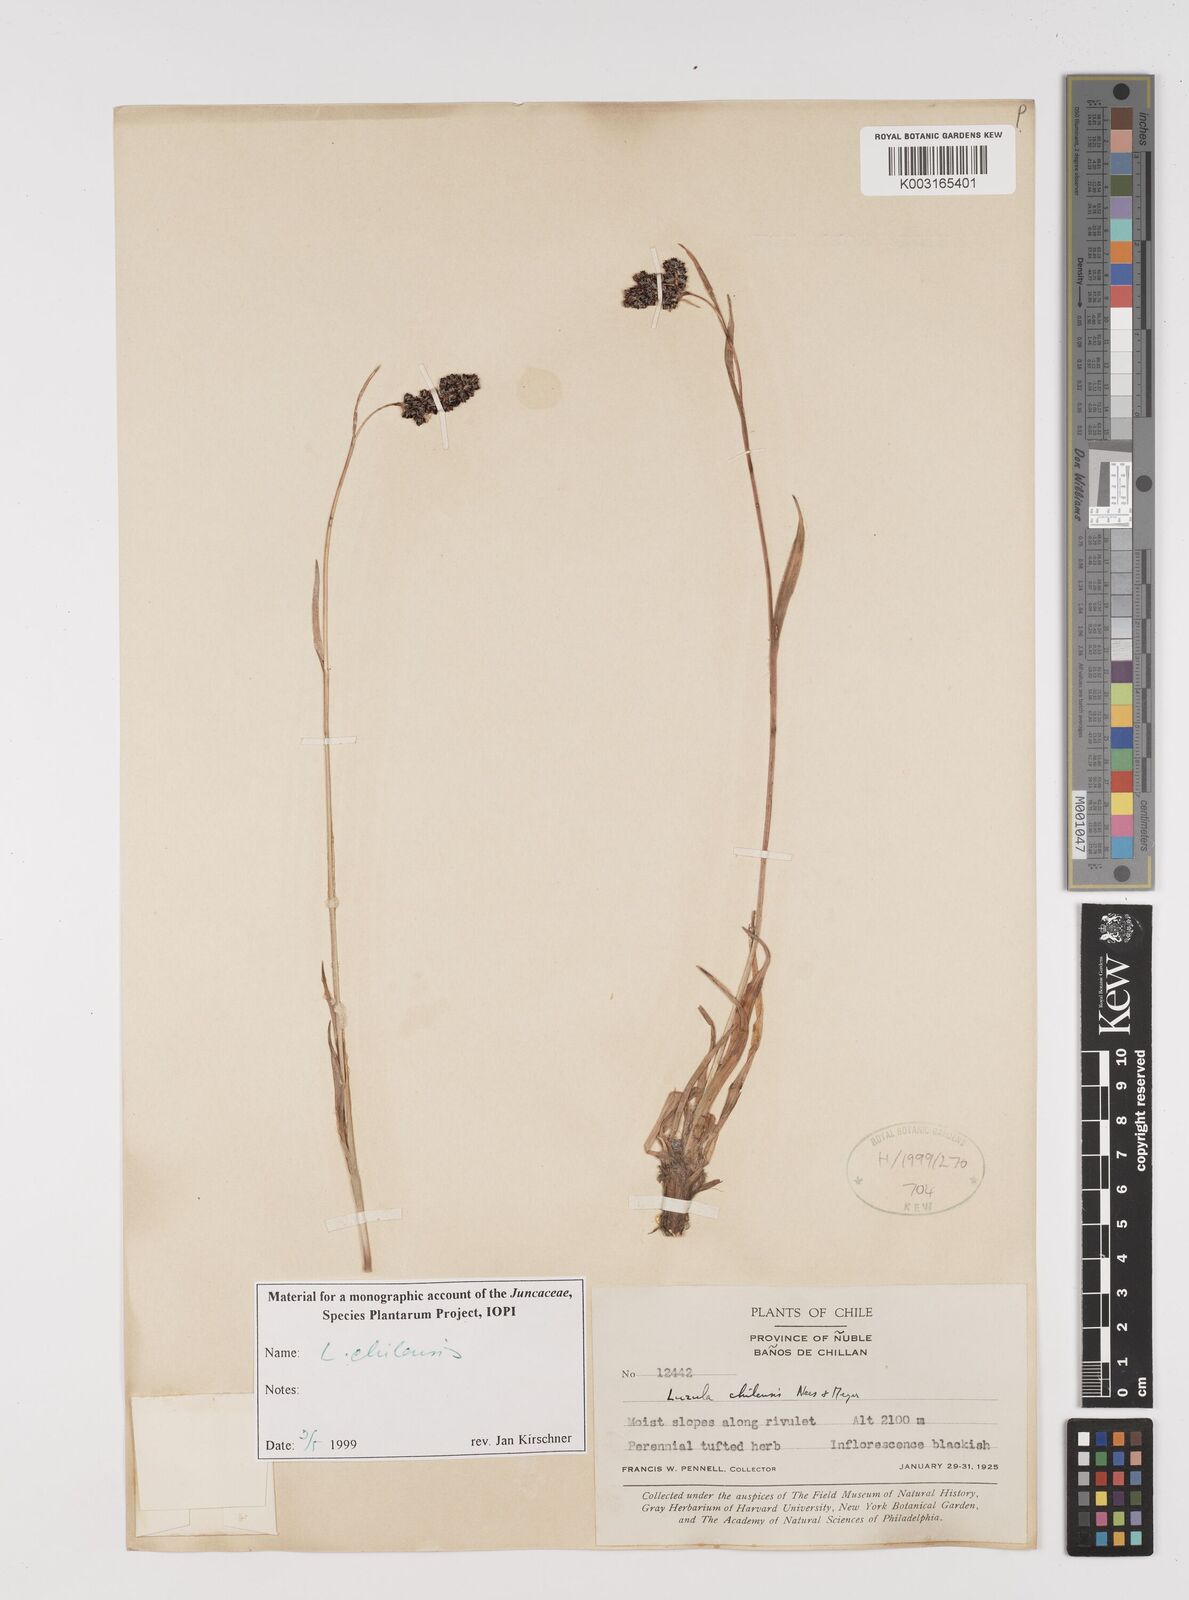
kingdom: Plantae
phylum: Tracheophyta
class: Liliopsida
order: Poales
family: Juncaceae
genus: Luzula
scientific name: Luzula chilensis
